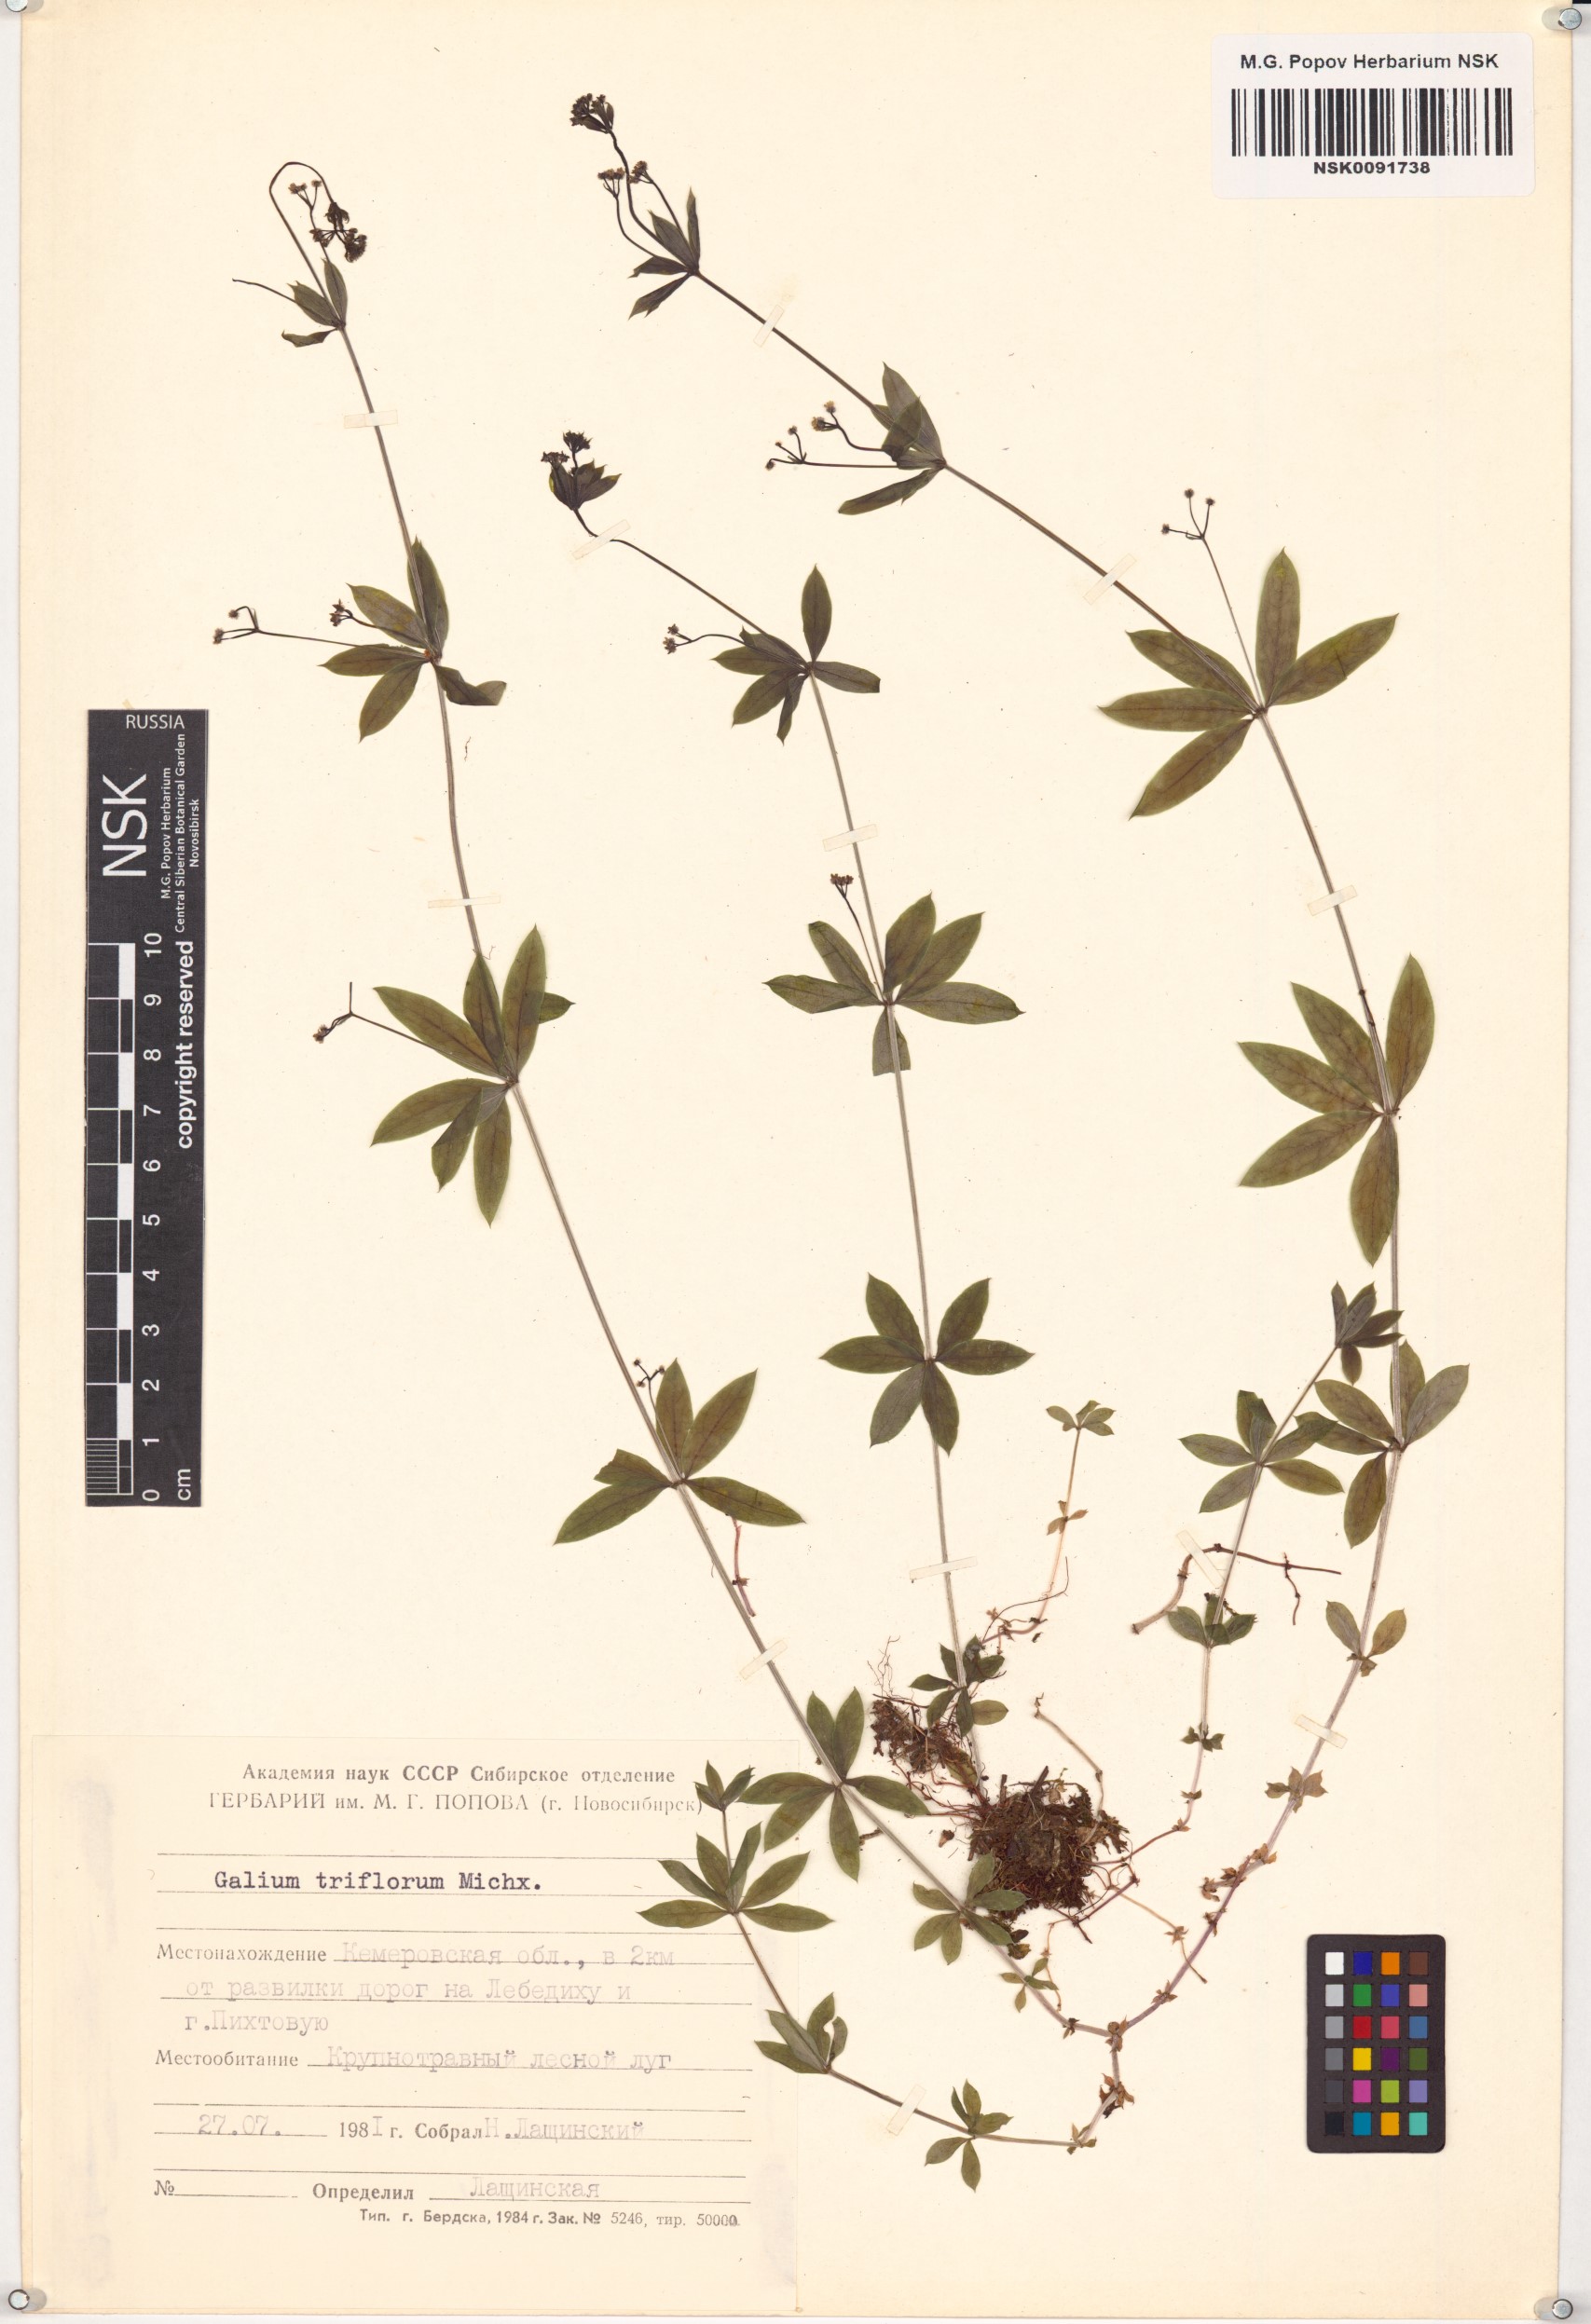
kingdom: Plantae
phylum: Tracheophyta
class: Magnoliopsida
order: Gentianales
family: Rubiaceae
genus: Galium
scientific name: Galium triflorum
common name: Fragrant bedstraw
